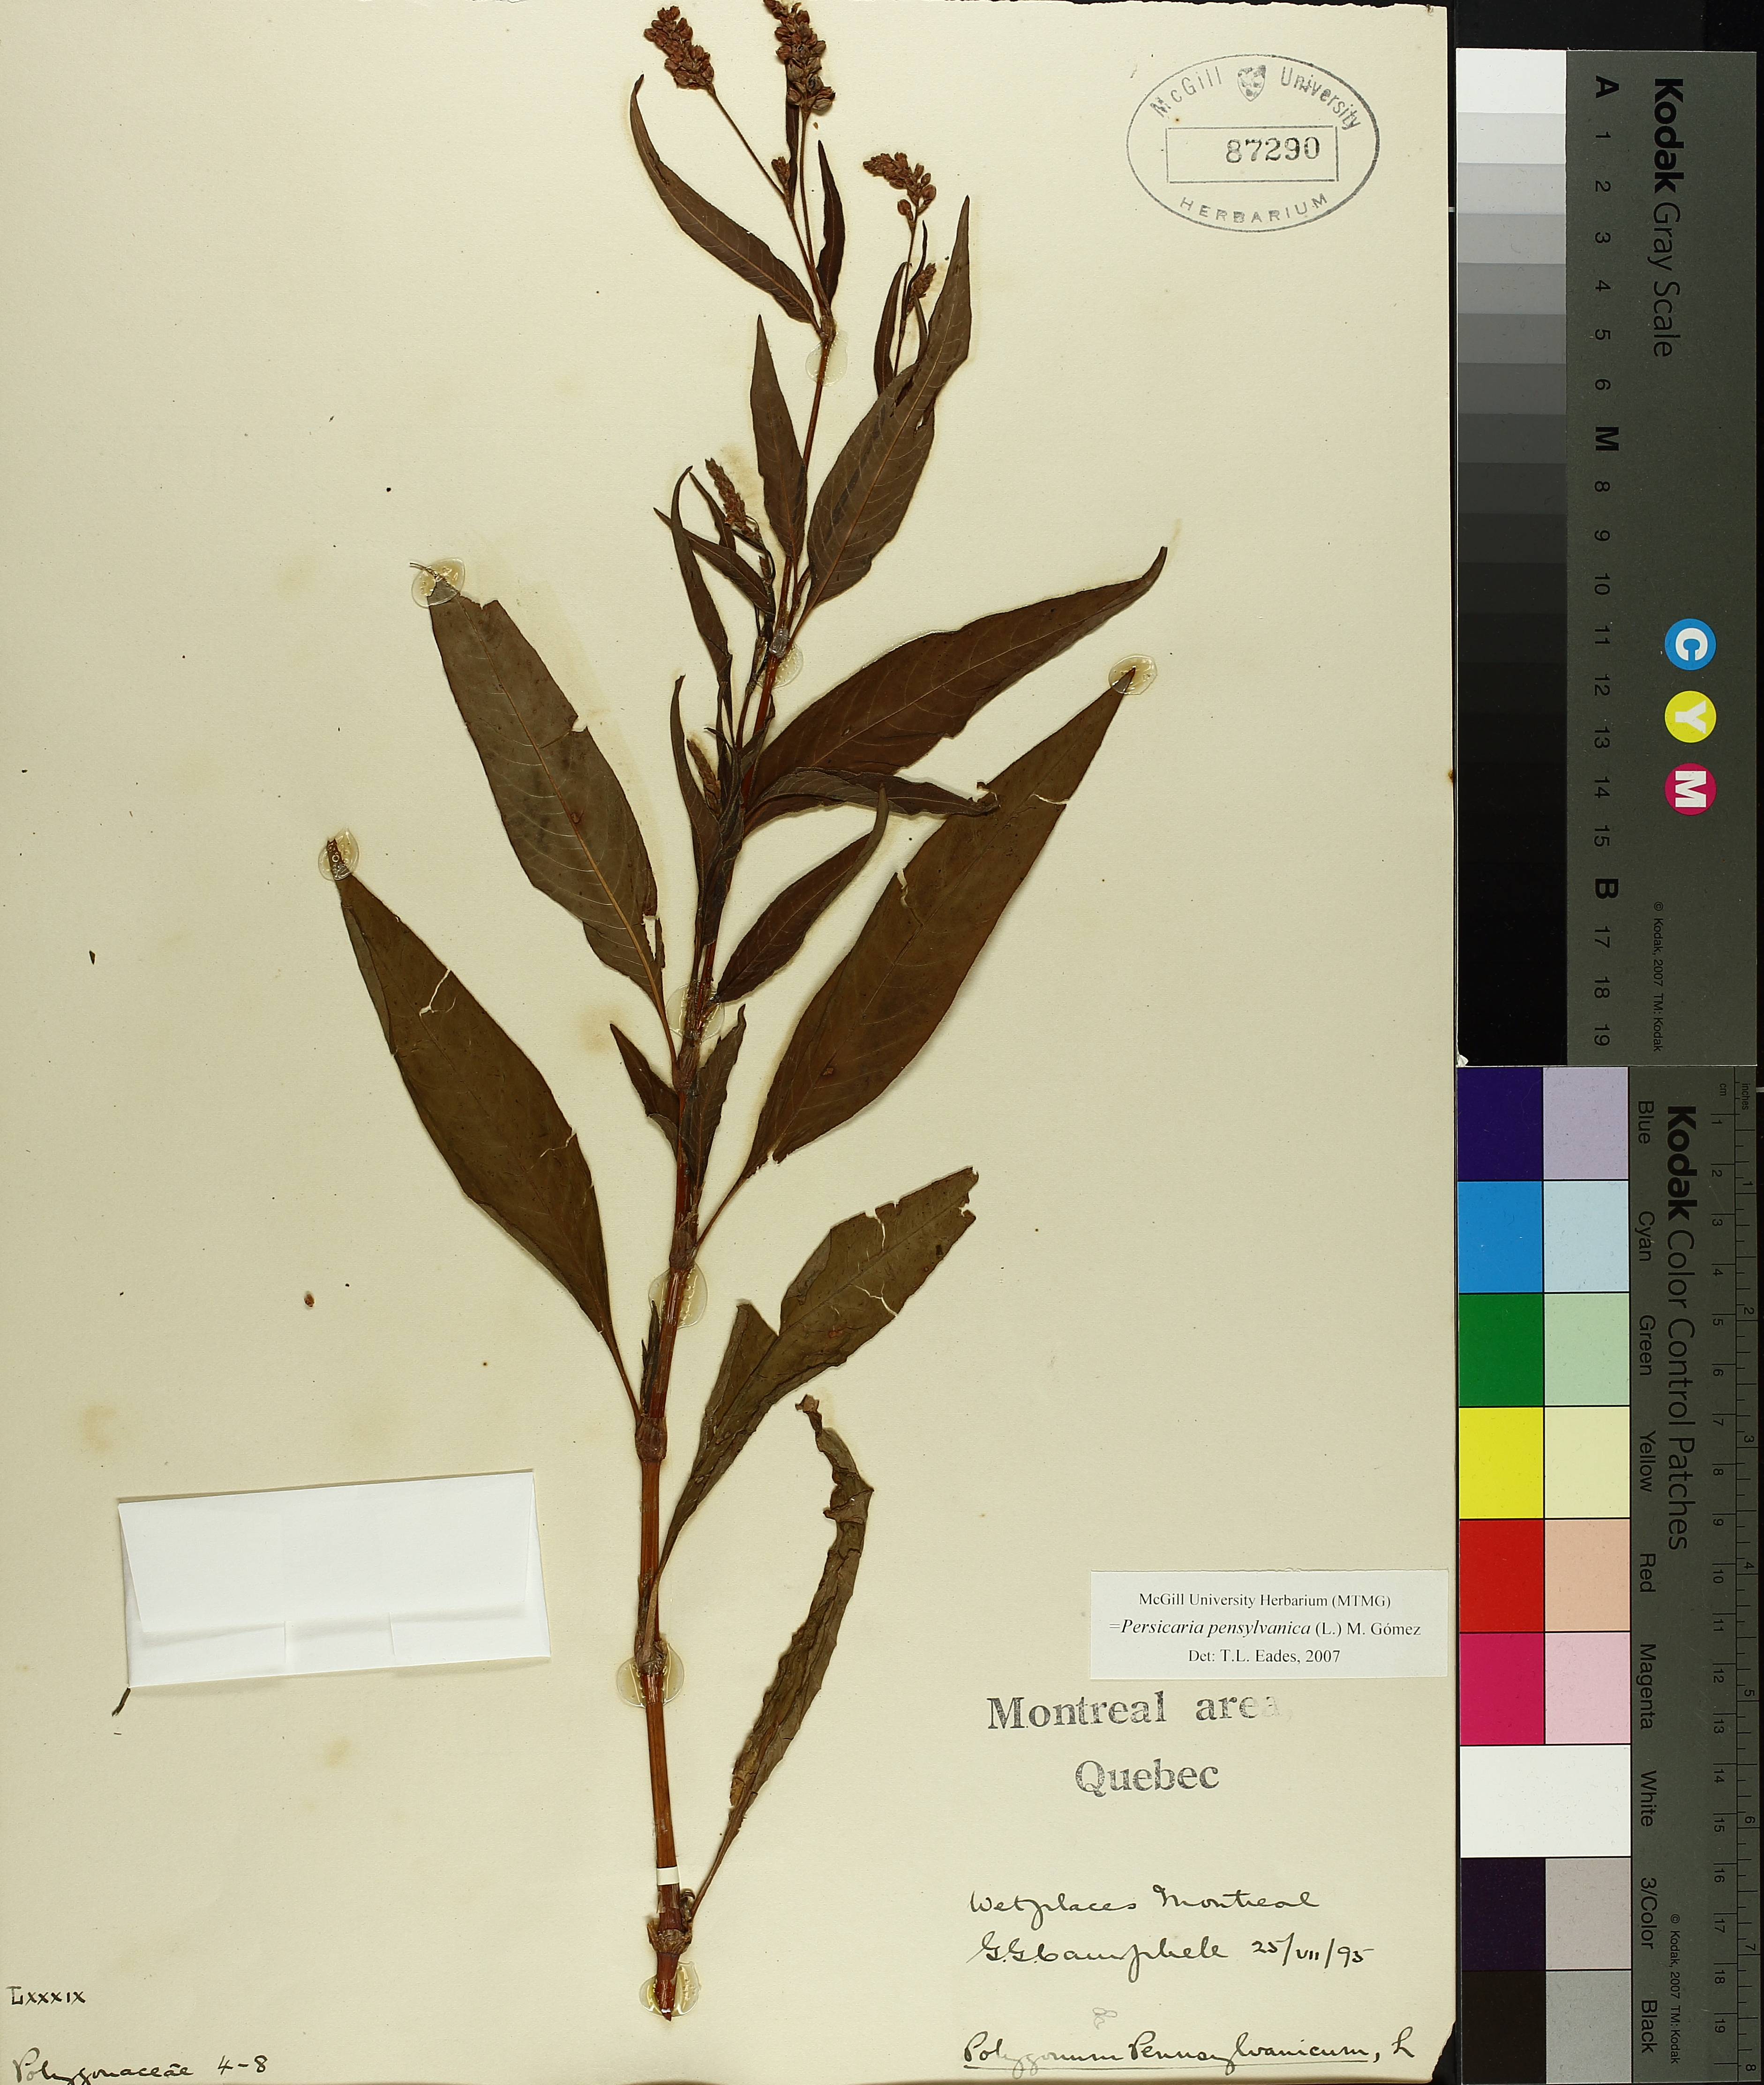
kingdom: Plantae
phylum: Tracheophyta
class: Magnoliopsida
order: Caryophyllales
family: Polygonaceae
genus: Persicaria
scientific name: Persicaria bungeana
